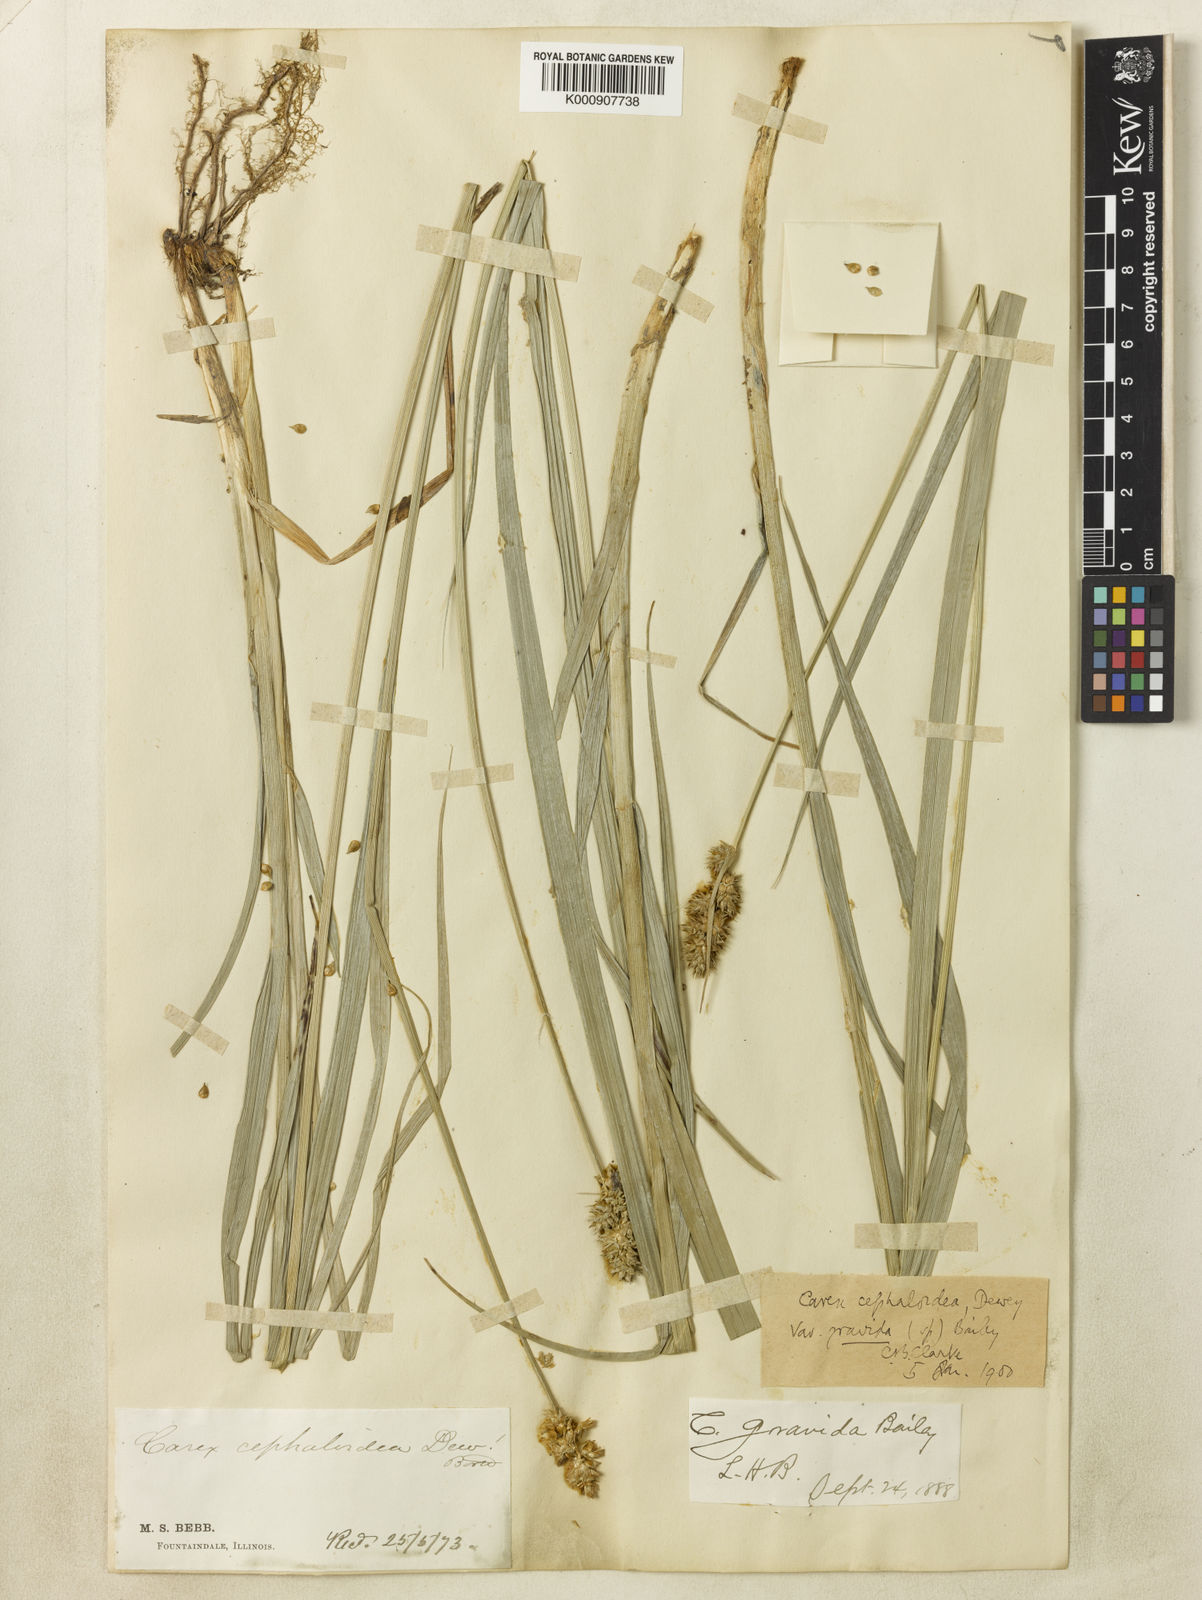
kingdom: Plantae
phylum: Tracheophyta
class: Liliopsida
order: Poales
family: Cyperaceae
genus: Carex
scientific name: Carex gravida
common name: Heavy sedge
